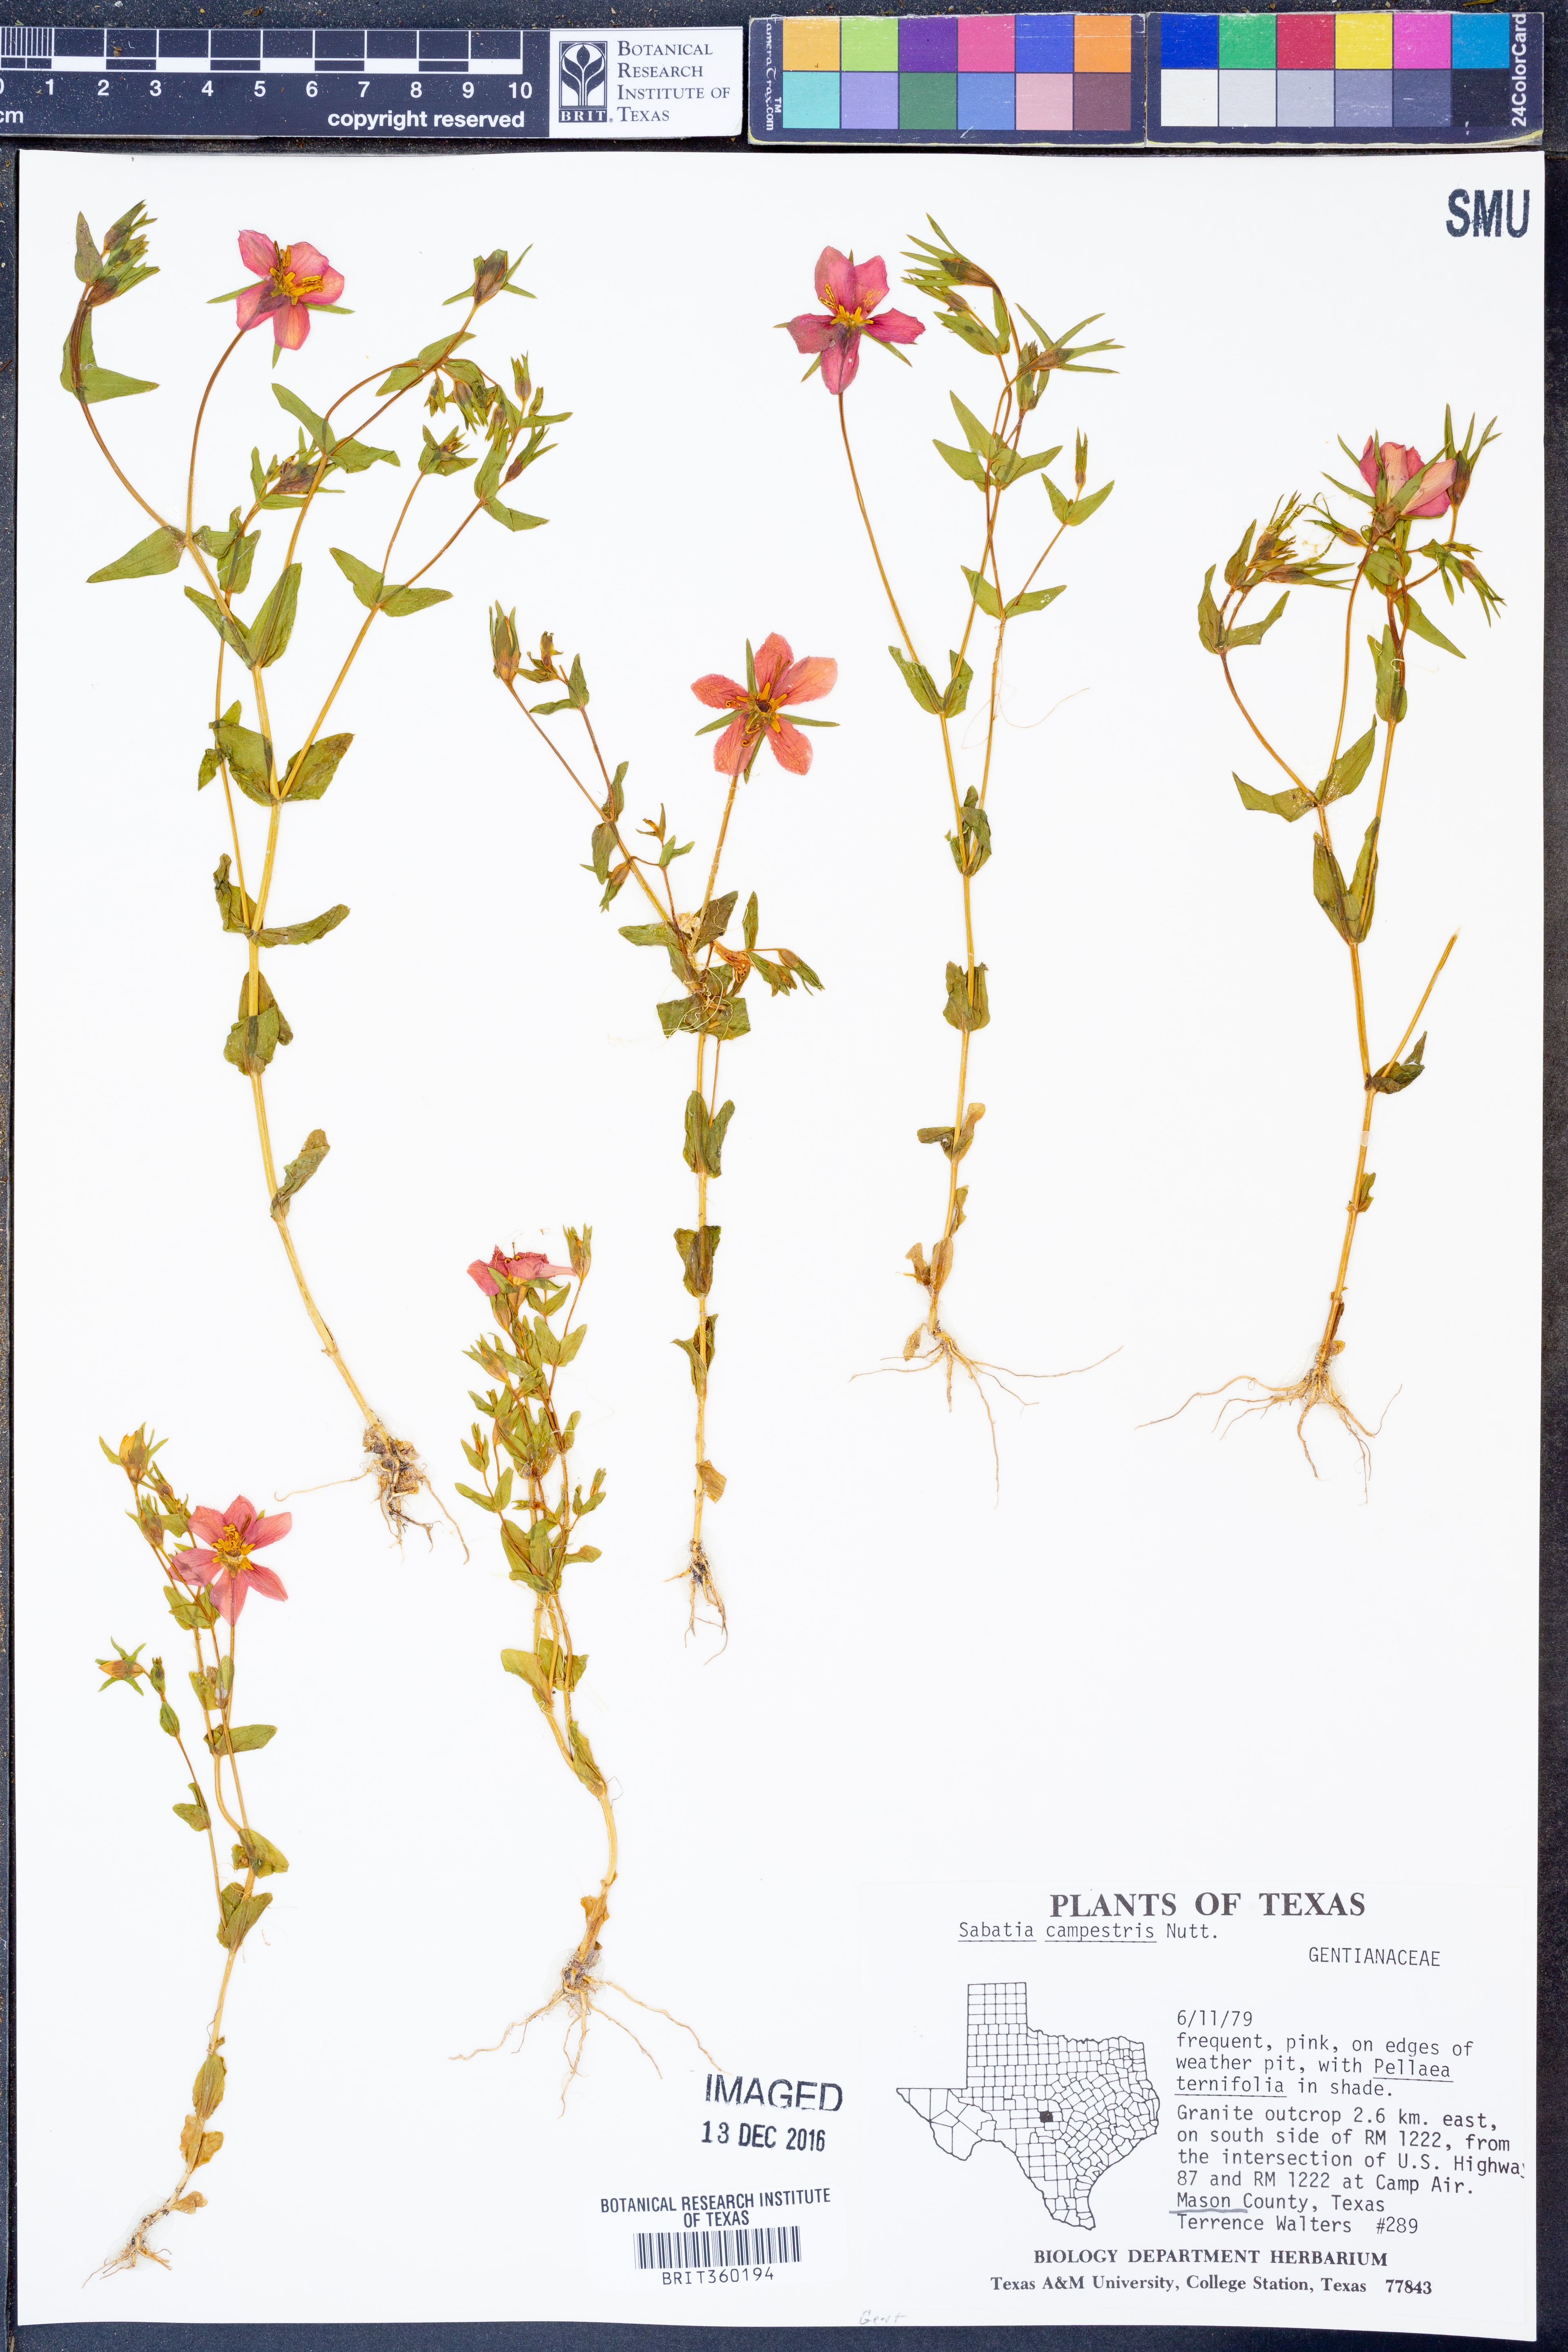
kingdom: Plantae
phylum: Tracheophyta
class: Magnoliopsida
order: Gentianales
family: Gentianaceae
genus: Sabatia
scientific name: Sabatia campestris
